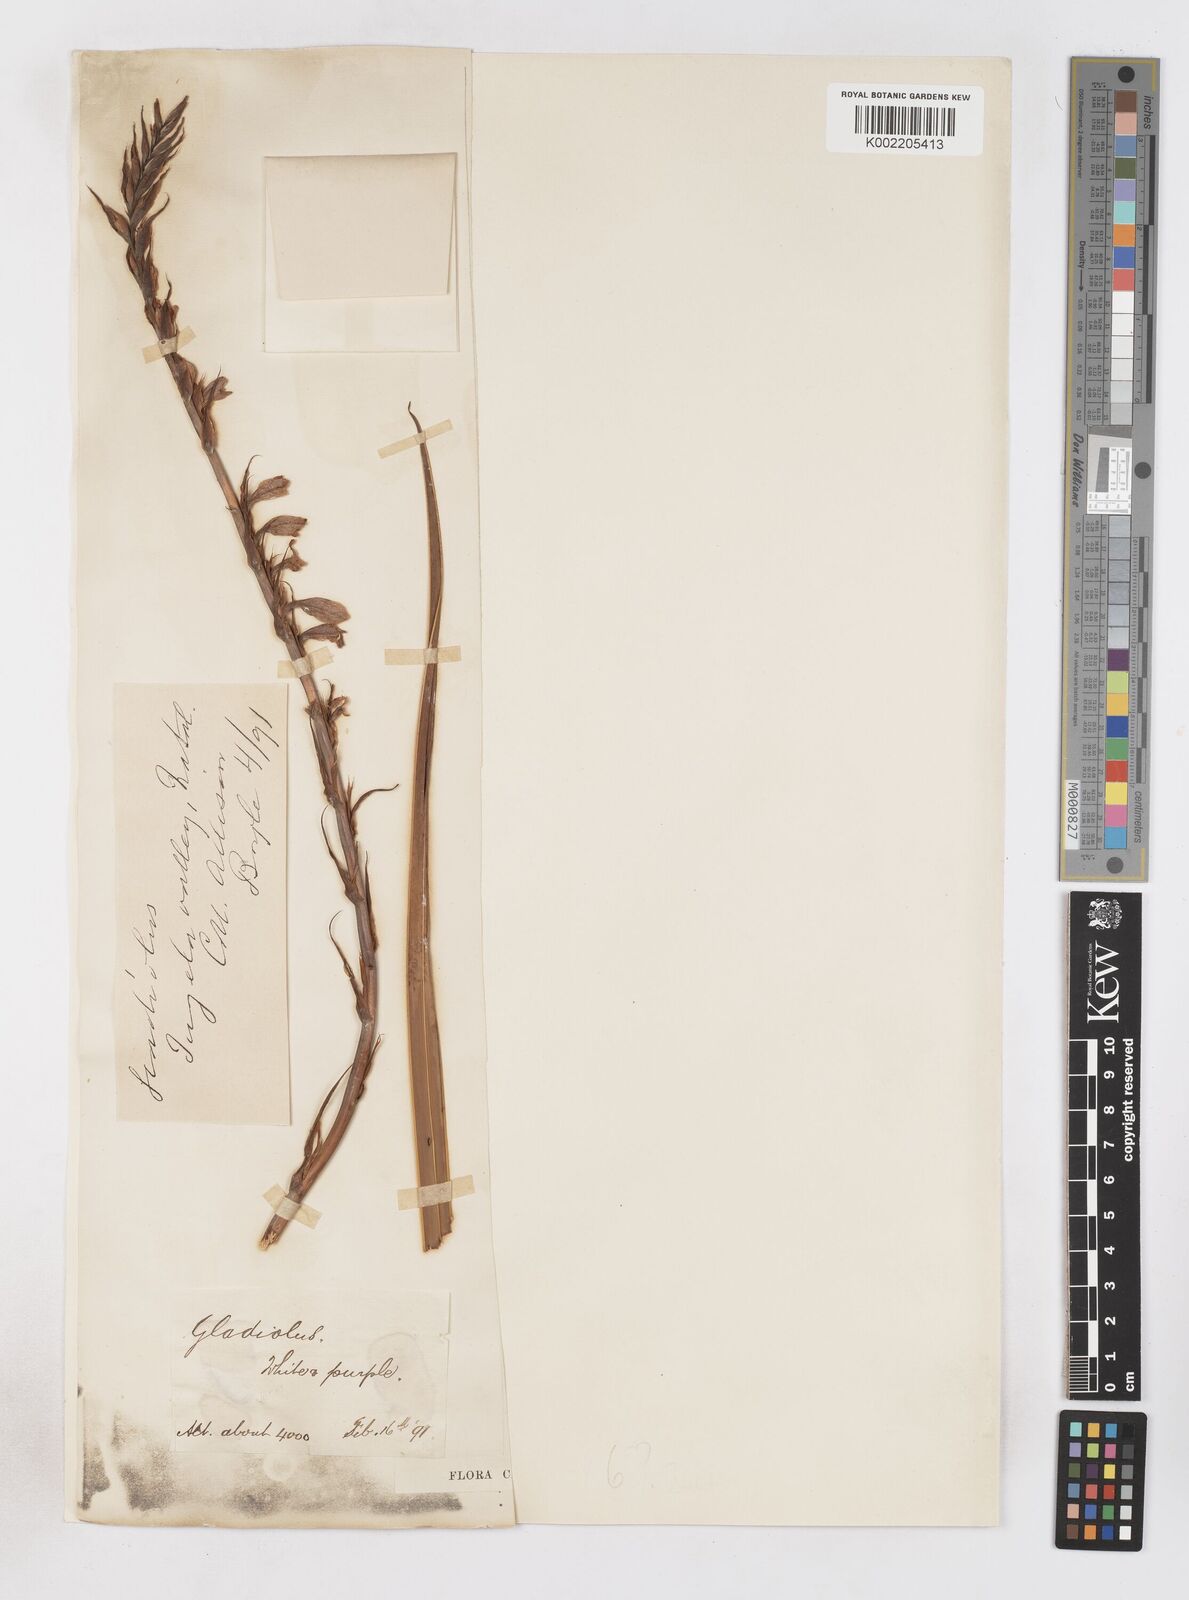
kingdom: Plantae
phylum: Tracheophyta
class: Liliopsida
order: Asparagales
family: Iridaceae
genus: Gladiolus
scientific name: Gladiolus densiflorus
